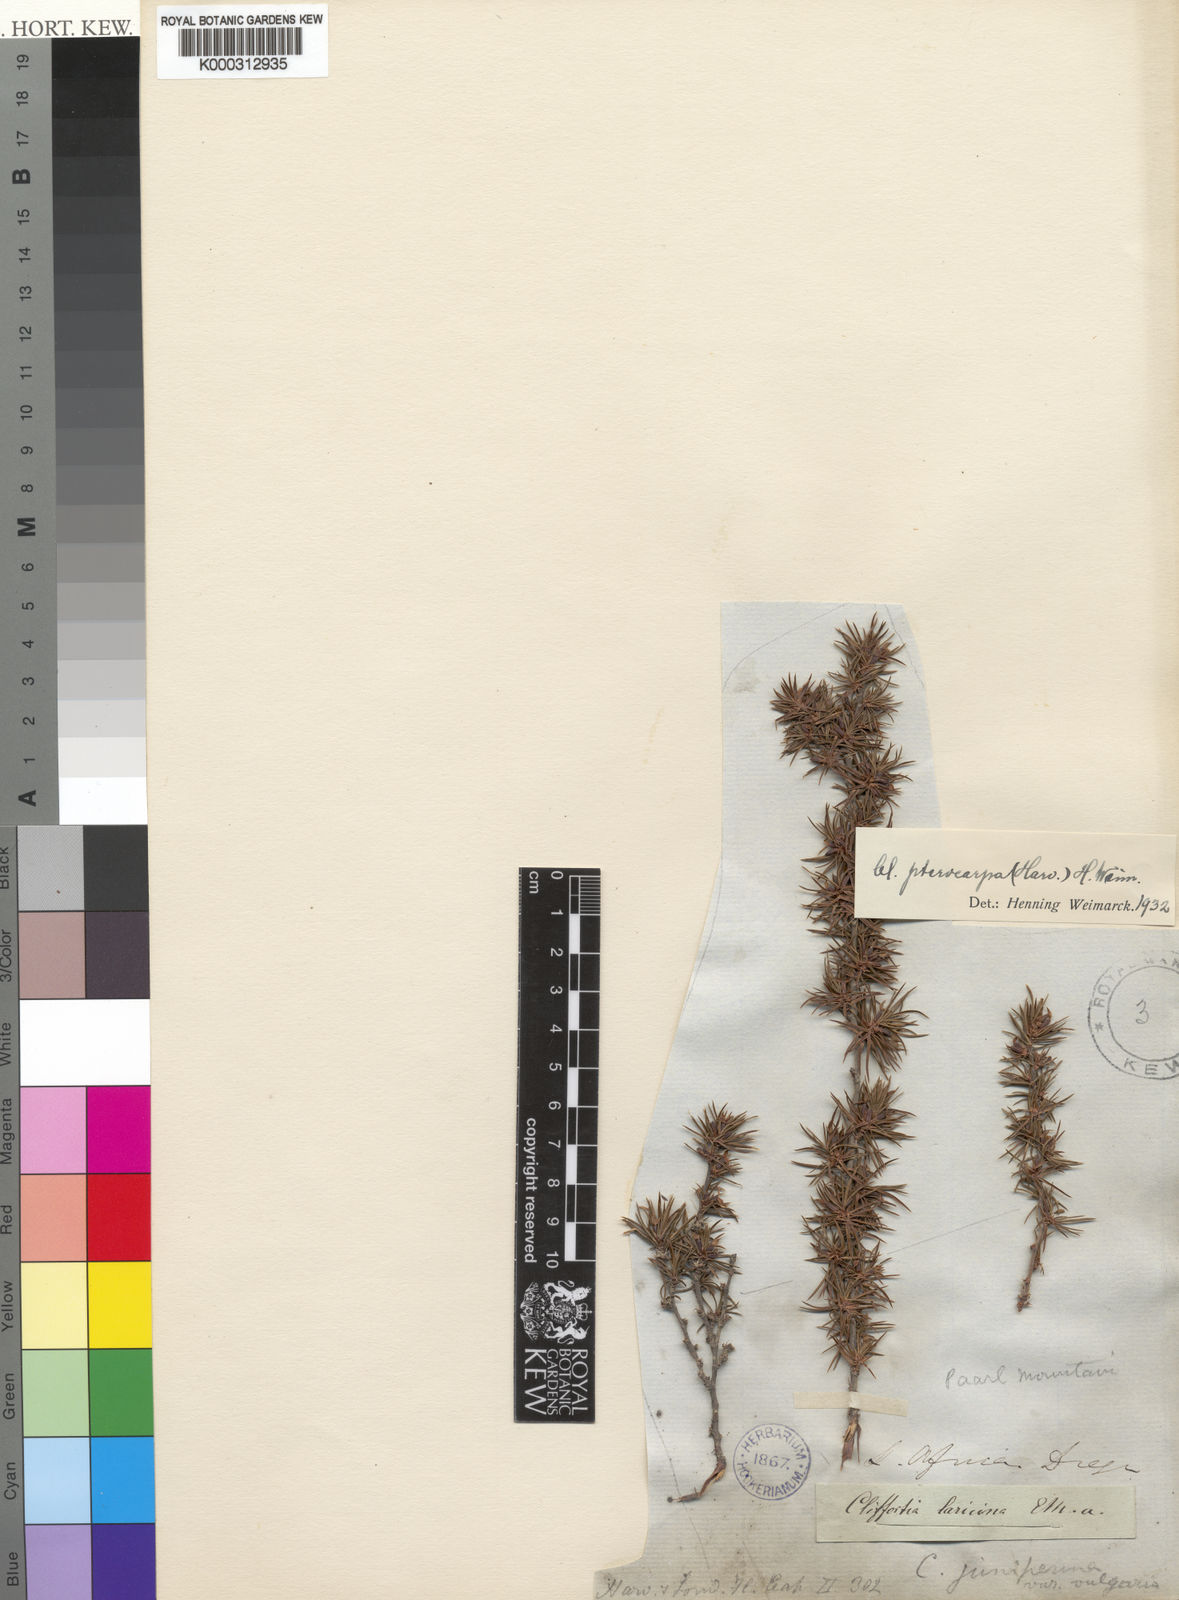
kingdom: Plantae
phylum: Tracheophyta
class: Magnoliopsida
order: Rosales
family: Rosaceae
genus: Cliffortia
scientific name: Cliffortia
